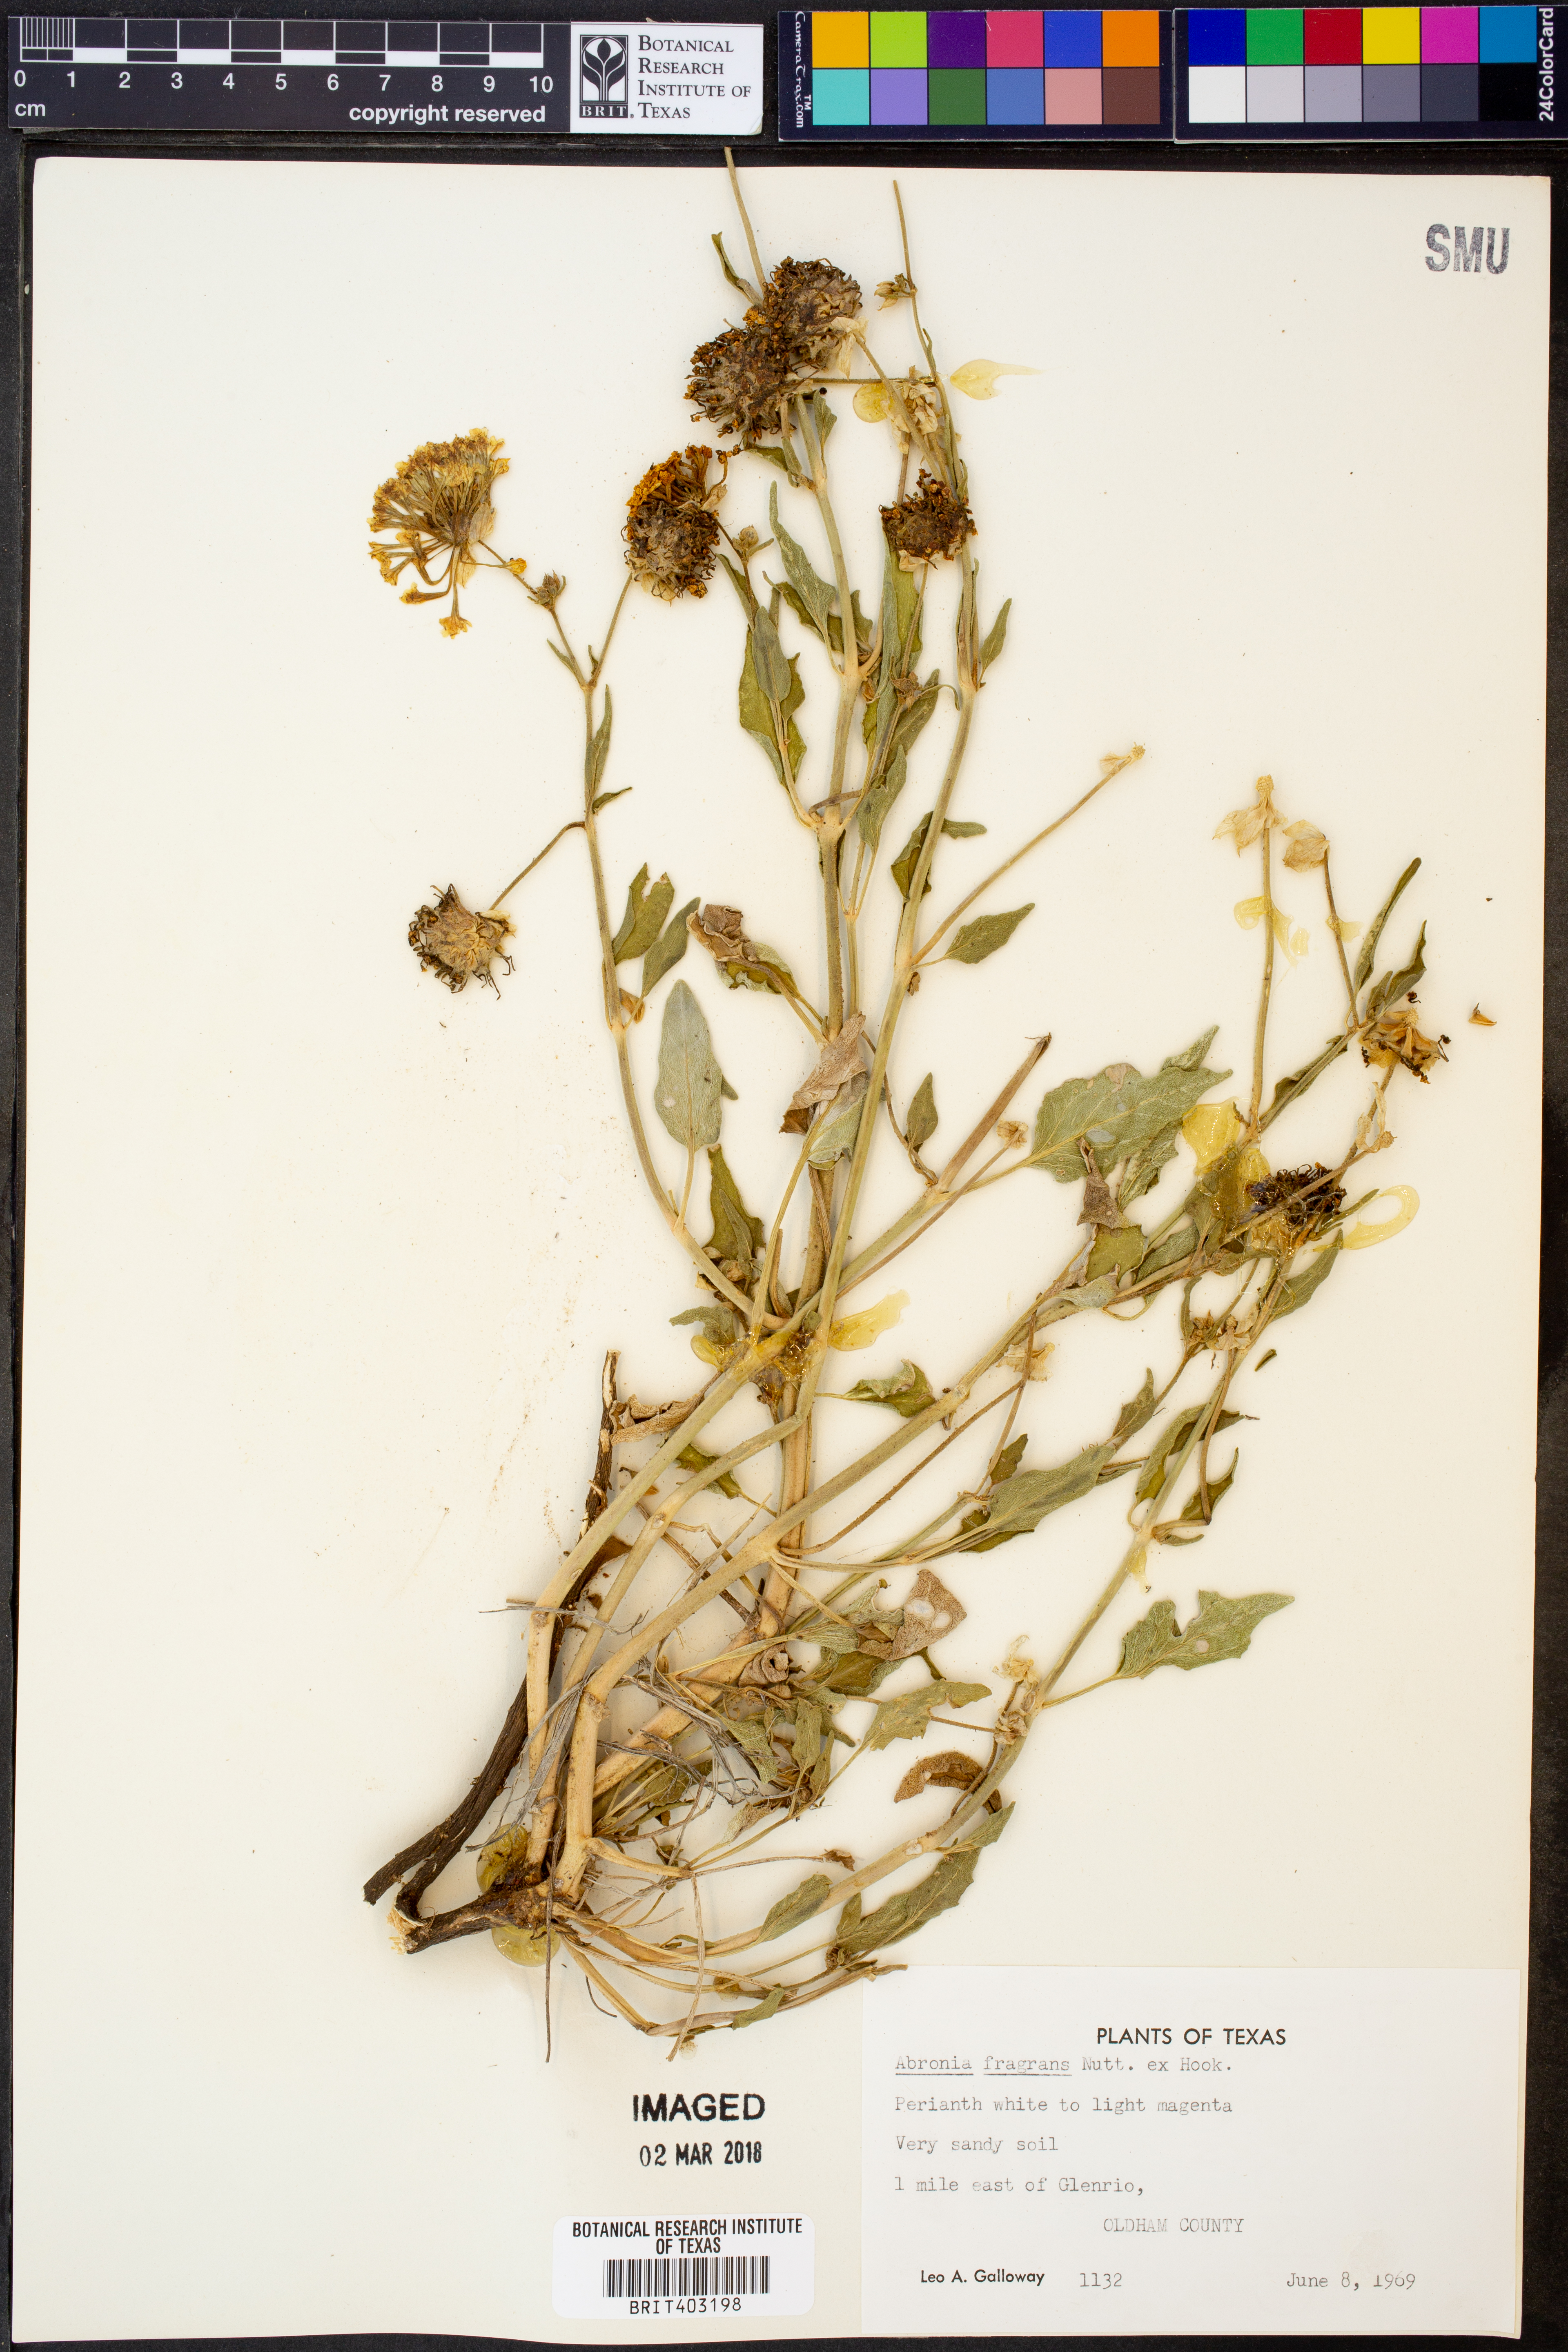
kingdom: Plantae
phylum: Tracheophyta
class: Magnoliopsida
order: Caryophyllales
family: Nyctaginaceae
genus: Abronia
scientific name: Abronia fragrans
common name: Fragrant sand-verbena
